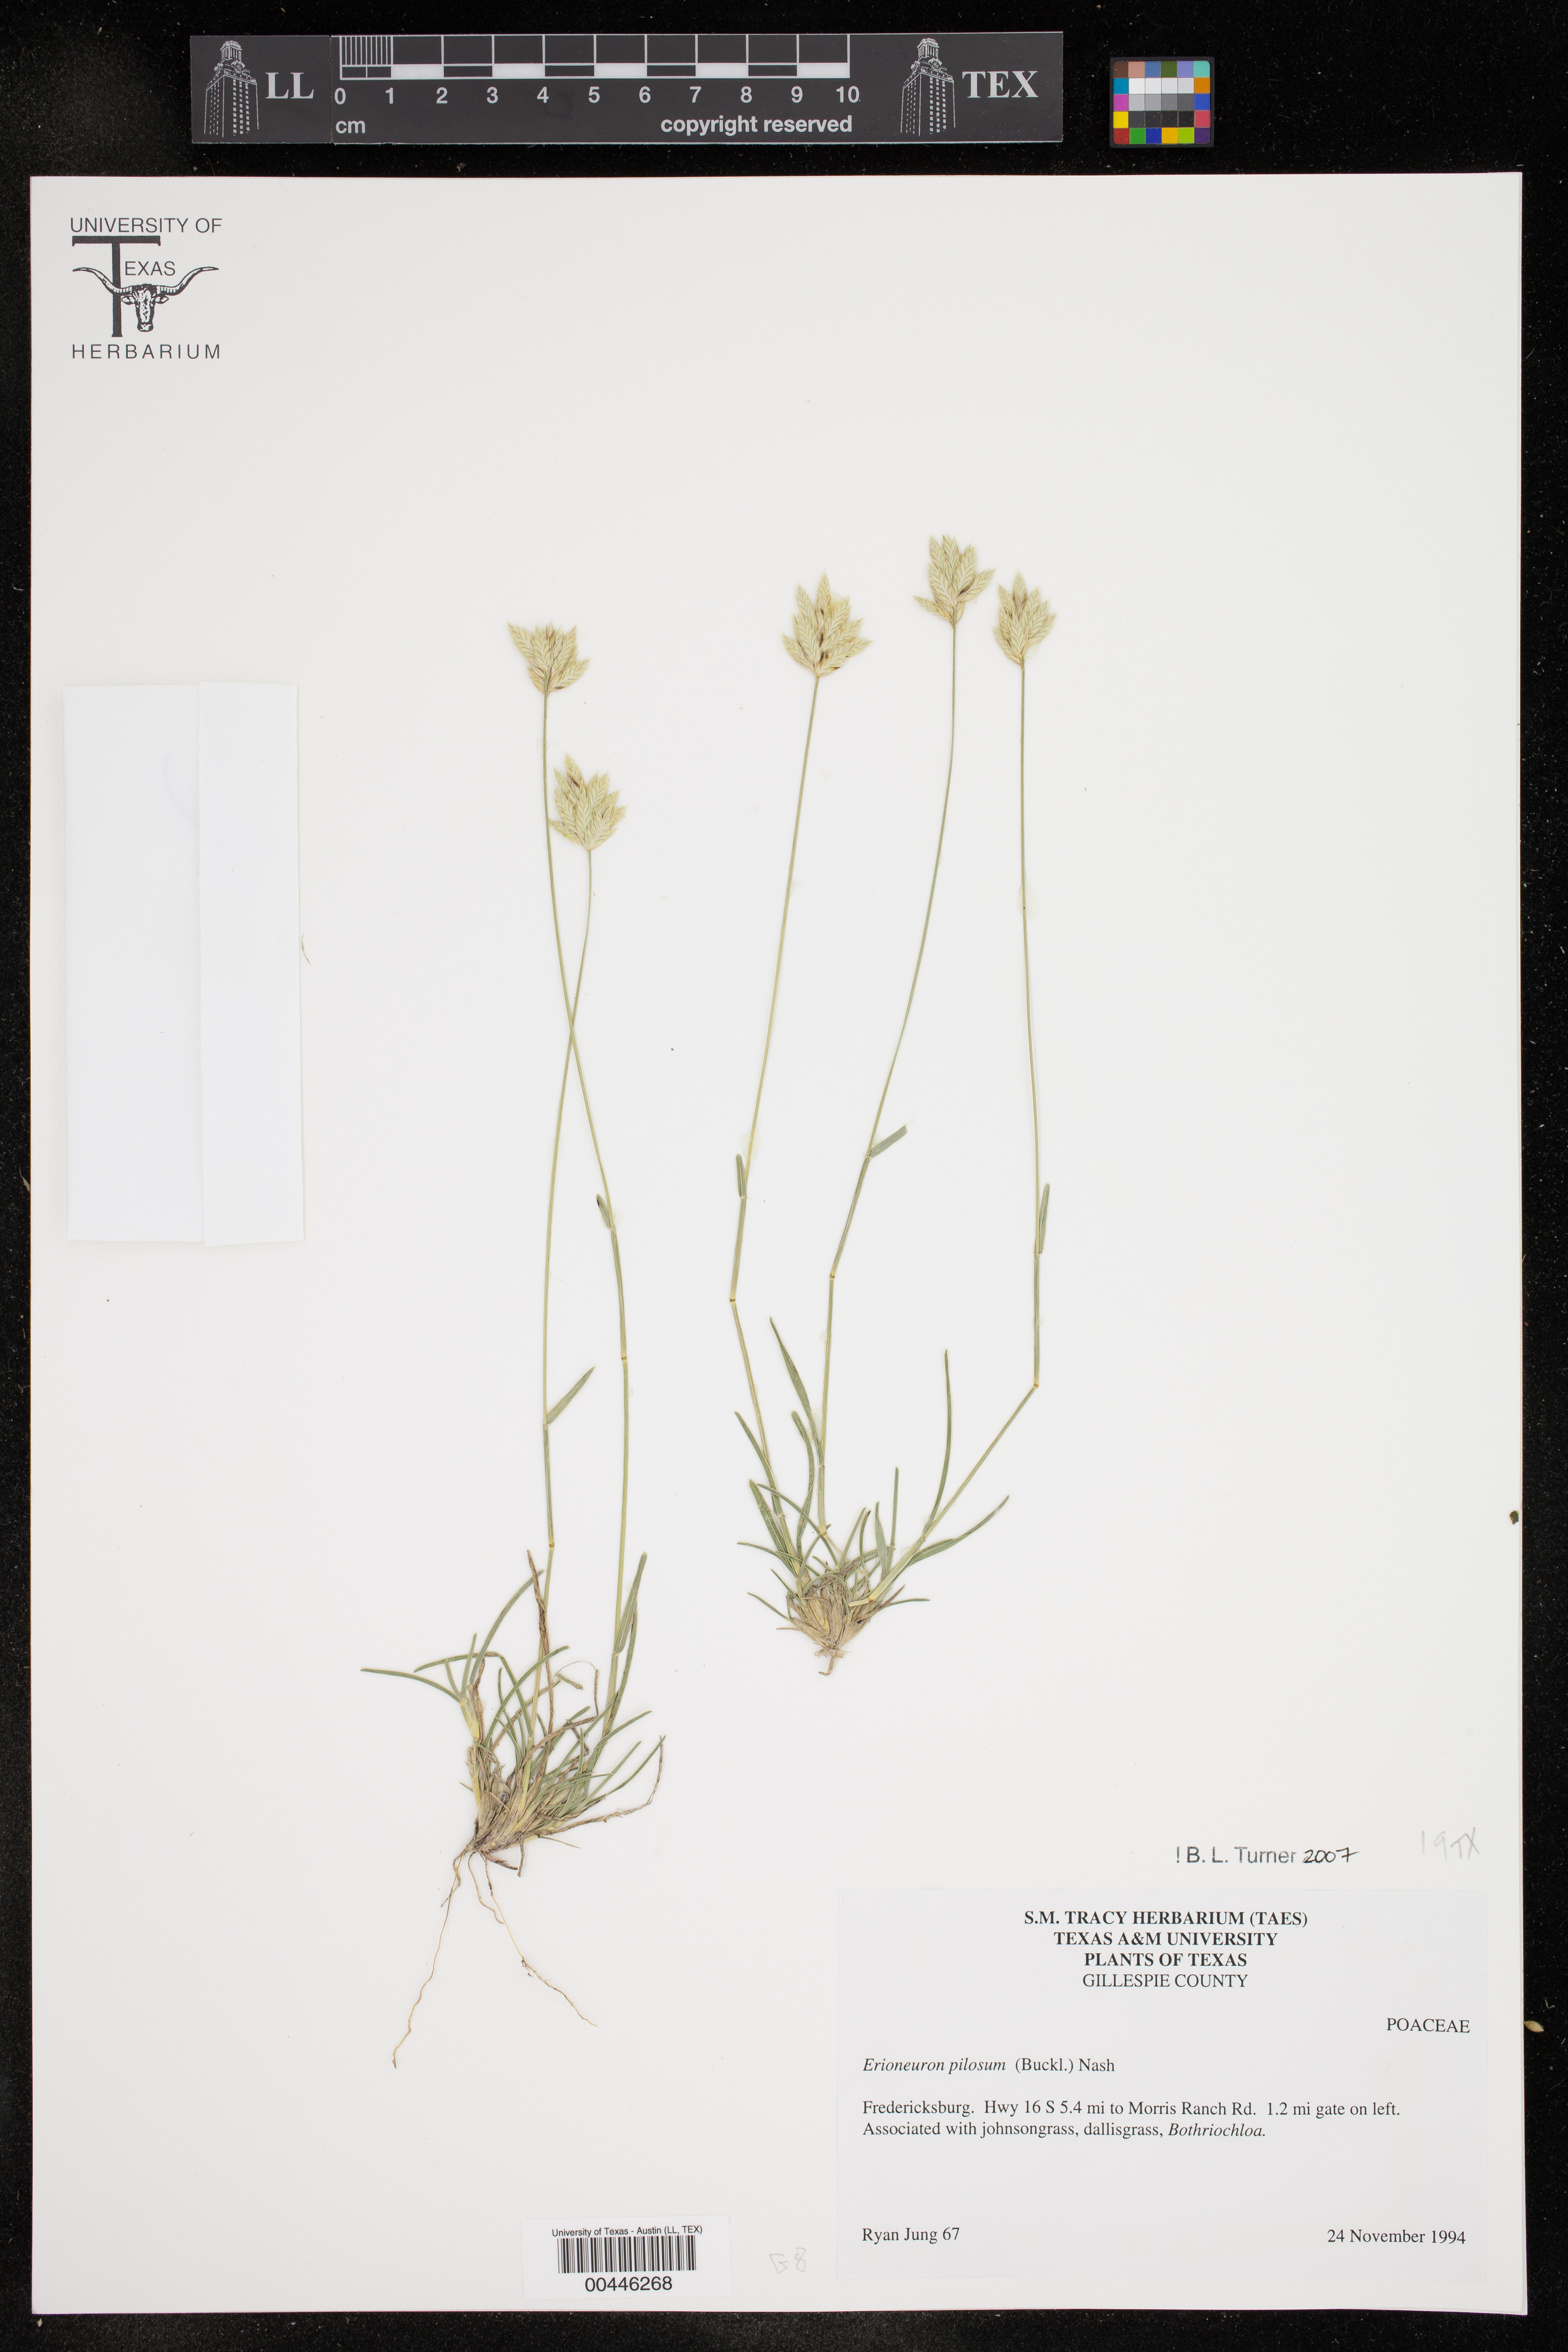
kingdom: Plantae
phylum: Tracheophyta
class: Liliopsida
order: Poales
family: Poaceae
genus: Erioneuron
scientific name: Erioneuron pilosum
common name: Hairy woolly grass
